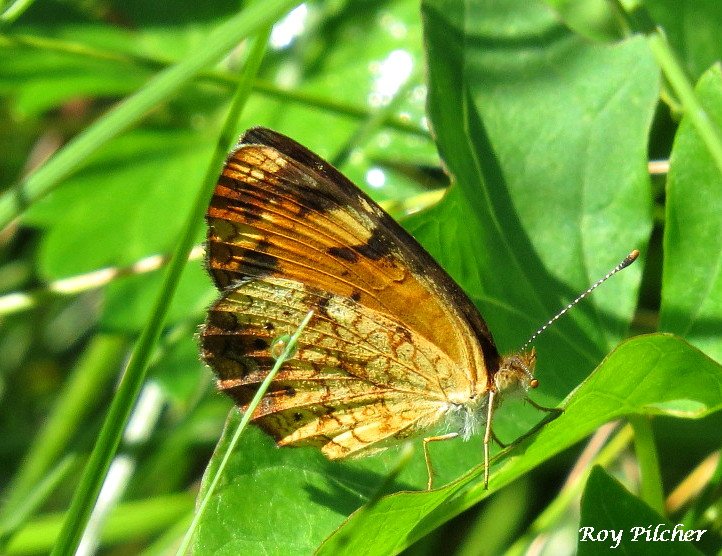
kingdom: Animalia
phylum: Arthropoda
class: Insecta
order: Lepidoptera
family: Nymphalidae
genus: Phyciodes
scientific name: Phyciodes tharos
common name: Pearl Crescent
